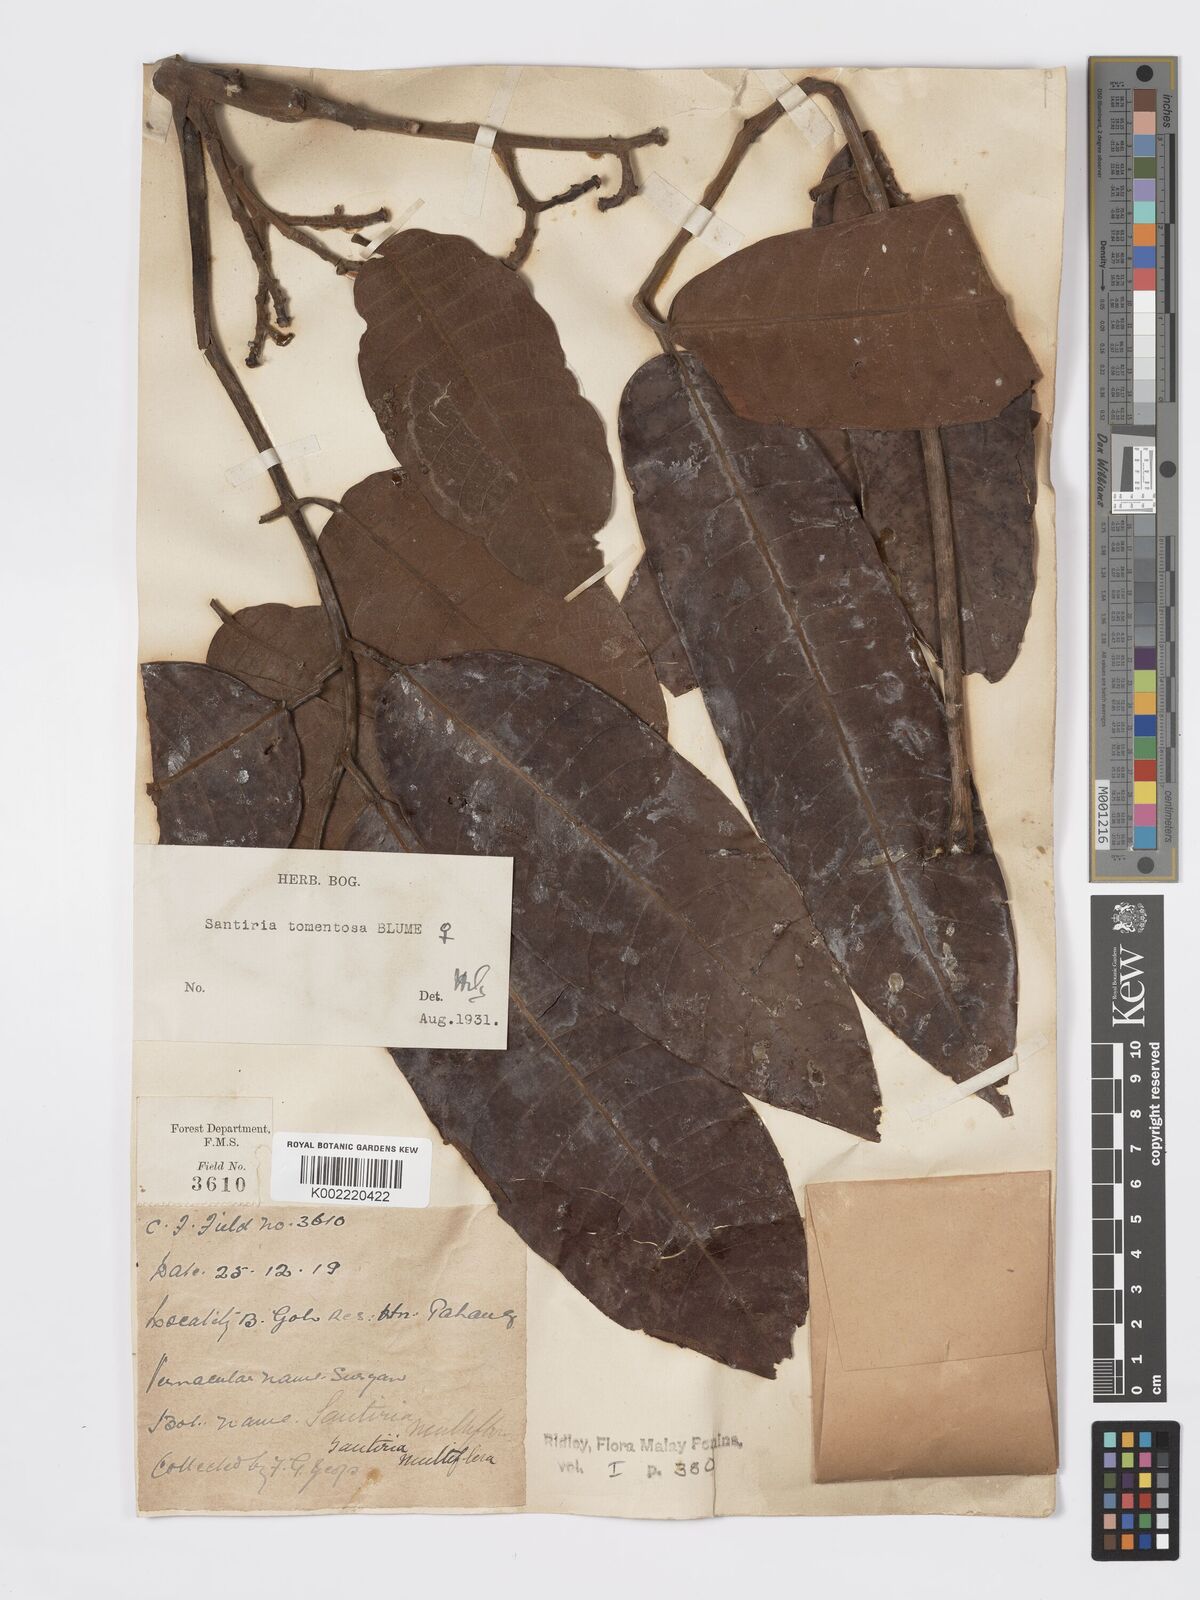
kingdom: Plantae
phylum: Tracheophyta
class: Magnoliopsida
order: Sapindales
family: Burseraceae
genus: Santiria
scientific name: Santiria tomentosa
